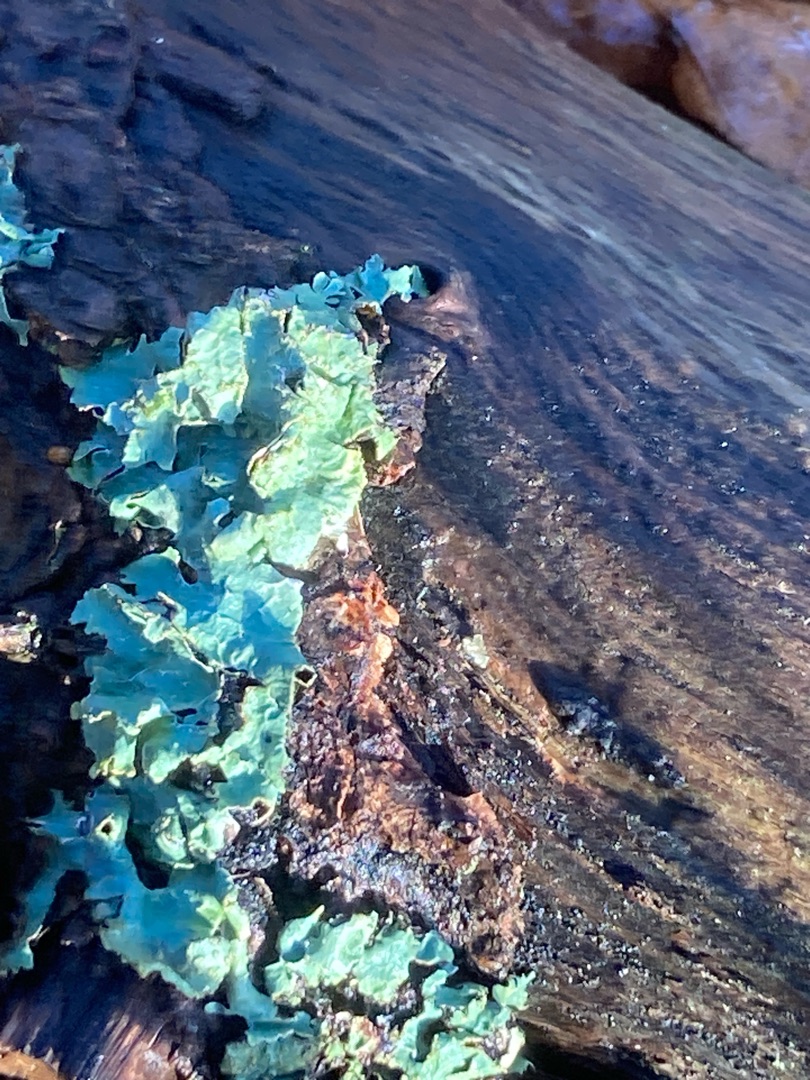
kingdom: Fungi
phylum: Ascomycota
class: Lecanoromycetes
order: Lecanorales
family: Parmeliaceae
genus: Parmelia
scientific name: Parmelia sulcata
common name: Rynket skållav
